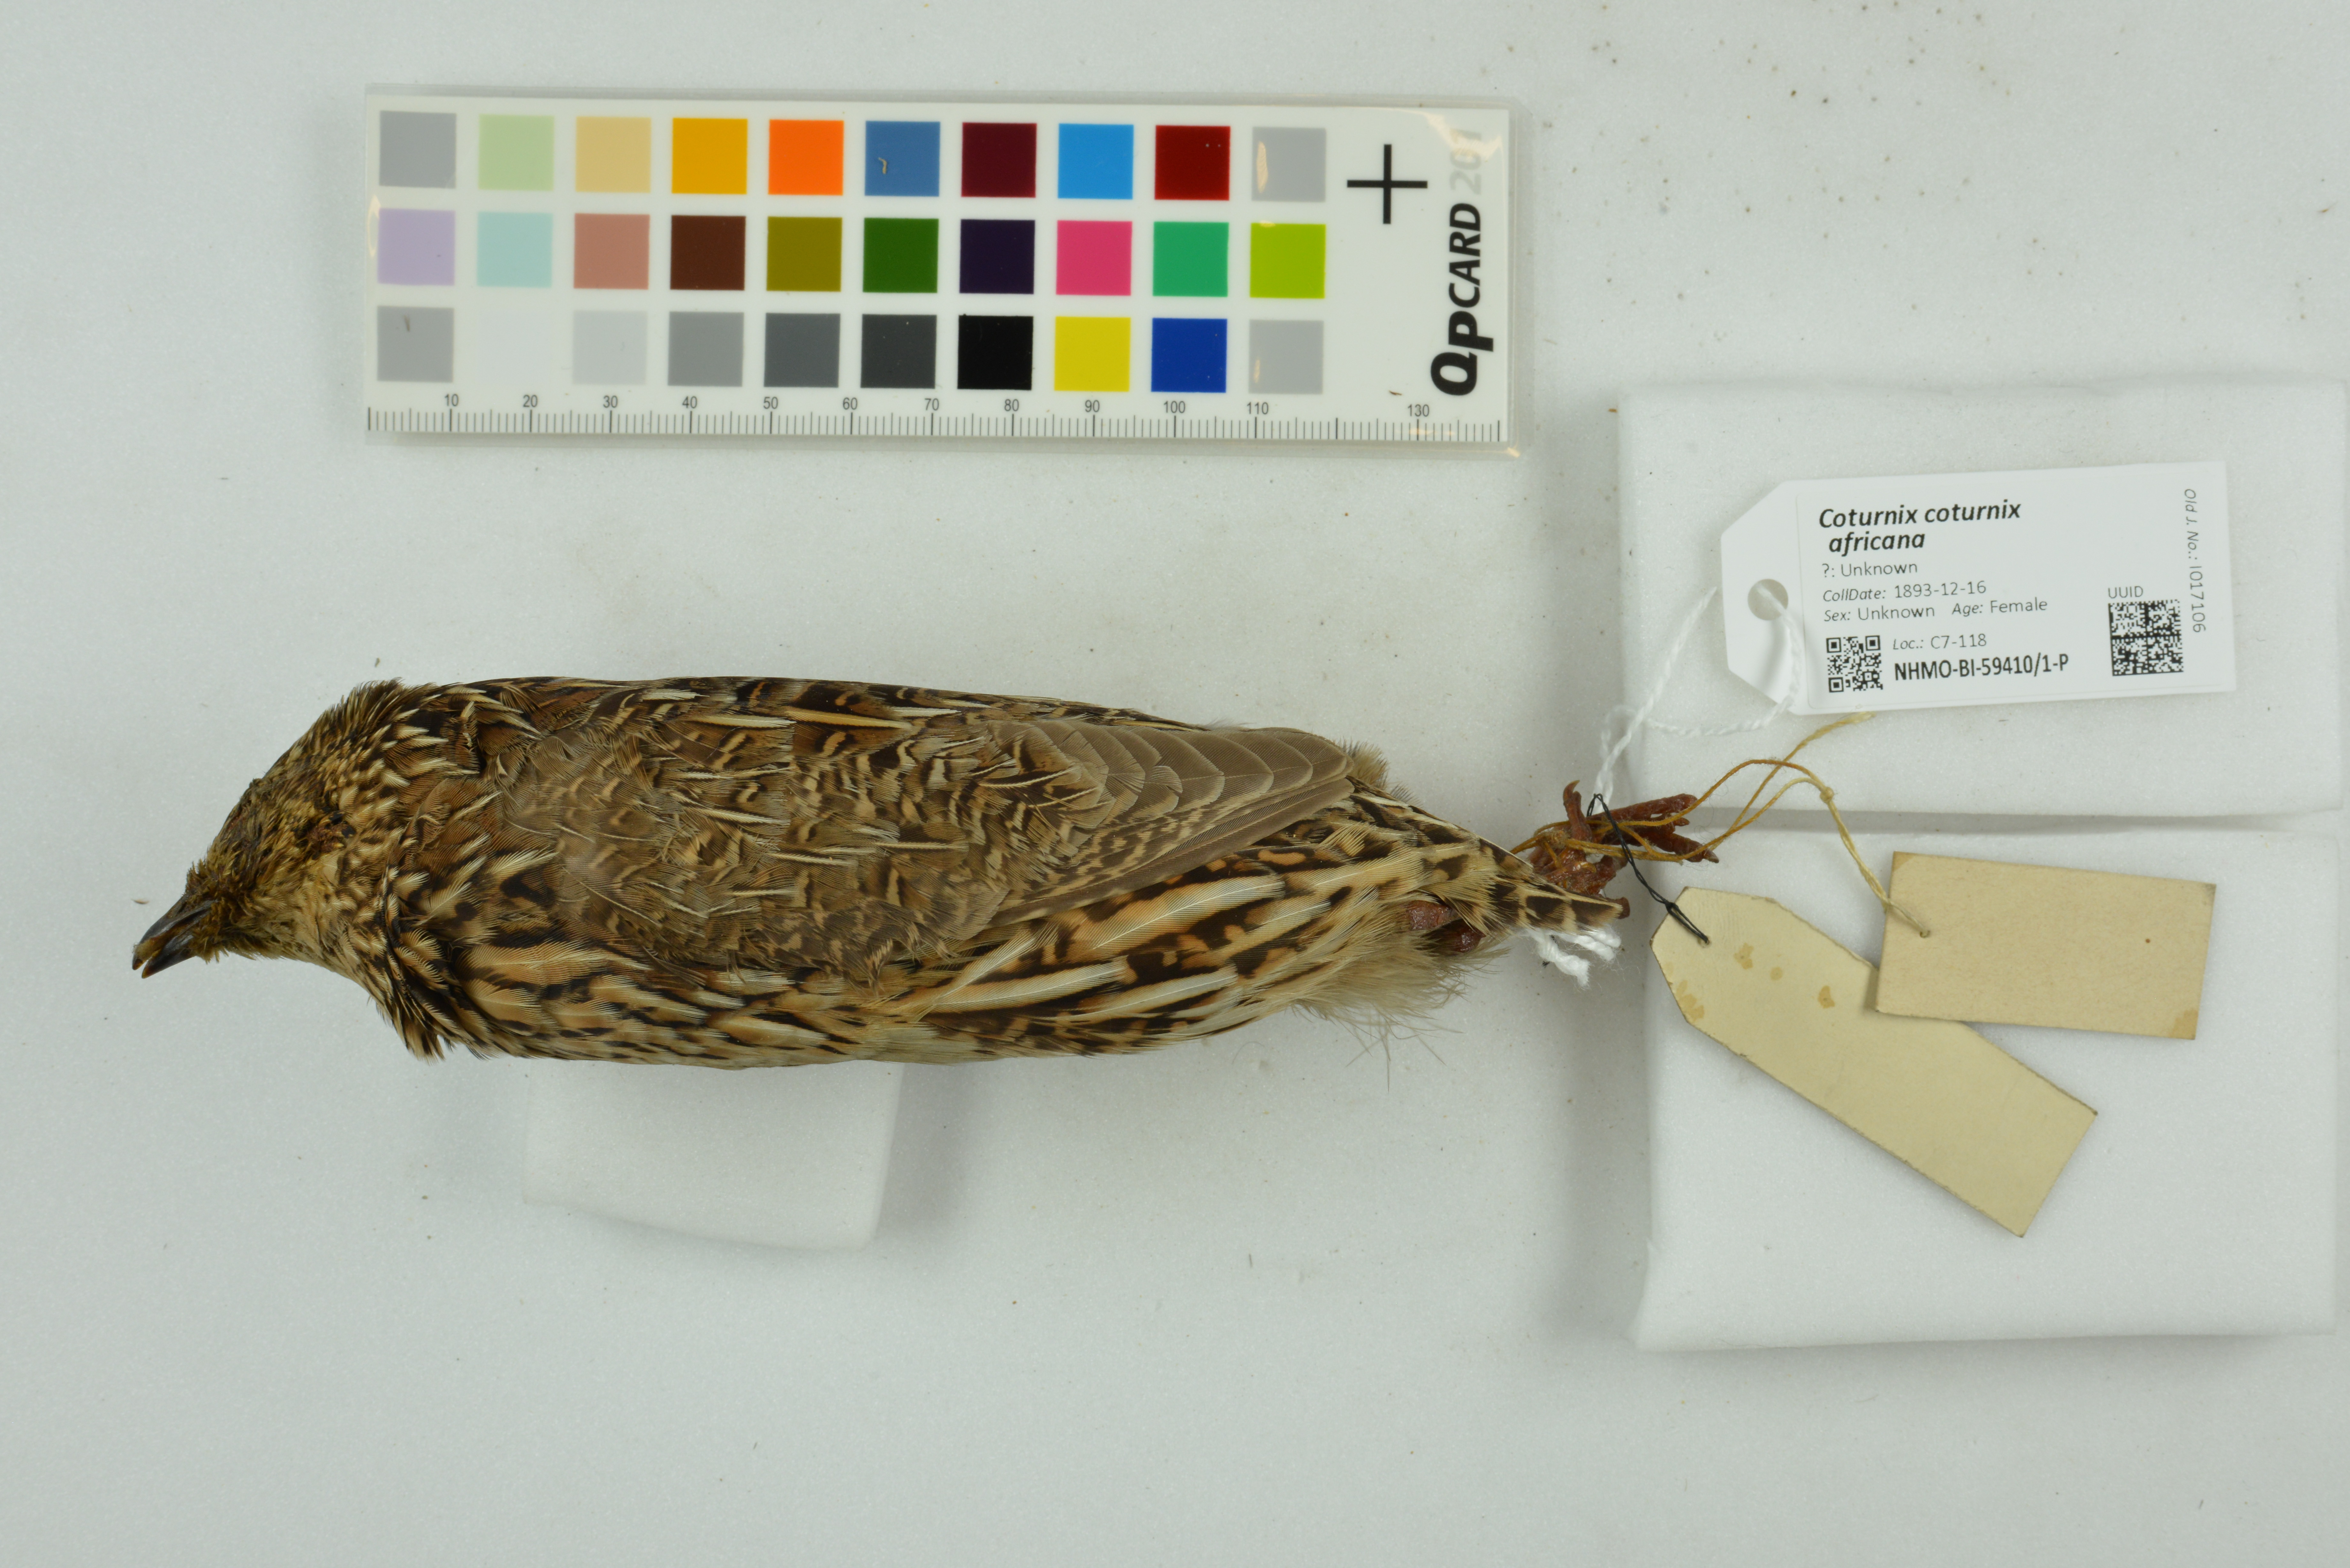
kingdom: Animalia
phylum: Chordata
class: Aves
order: Galliformes
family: Phasianidae
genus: Coturnix
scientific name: Coturnix coturnix
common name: Common quail
